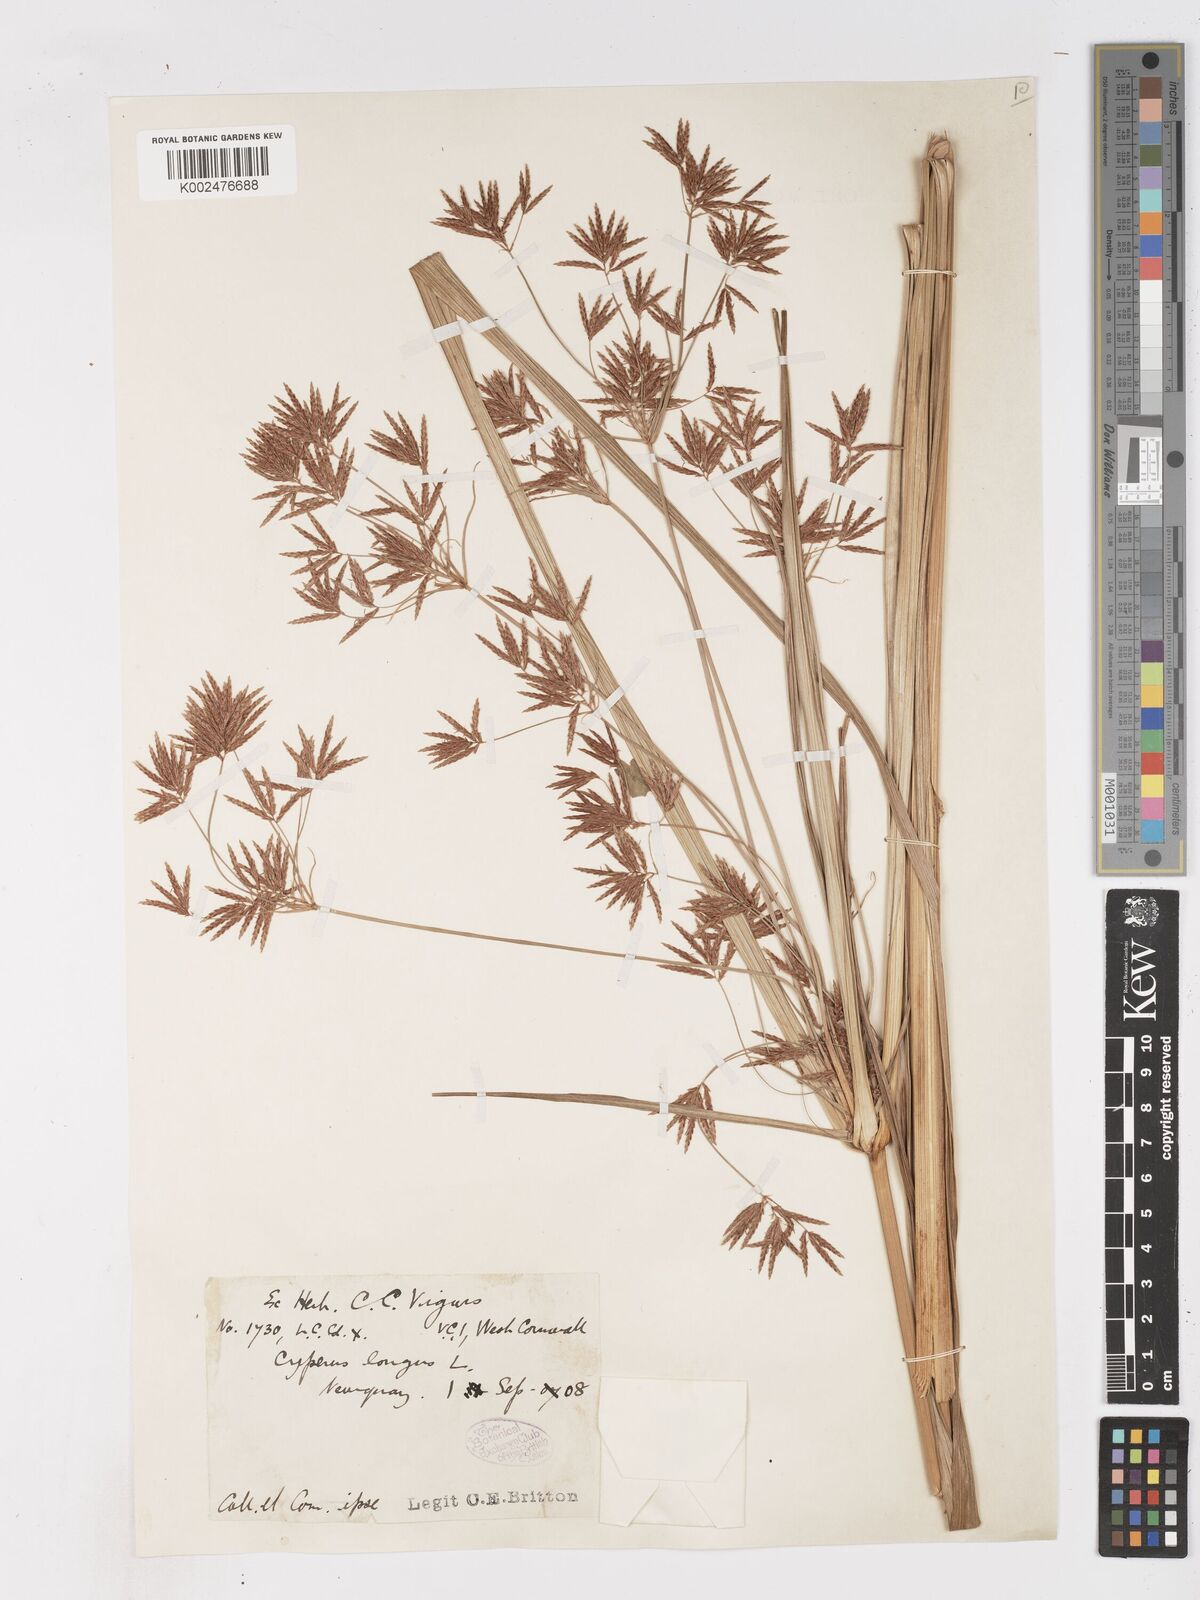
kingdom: Plantae
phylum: Tracheophyta
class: Liliopsida
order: Poales
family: Cyperaceae
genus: Cyperus
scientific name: Cyperus longus
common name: Galingale
